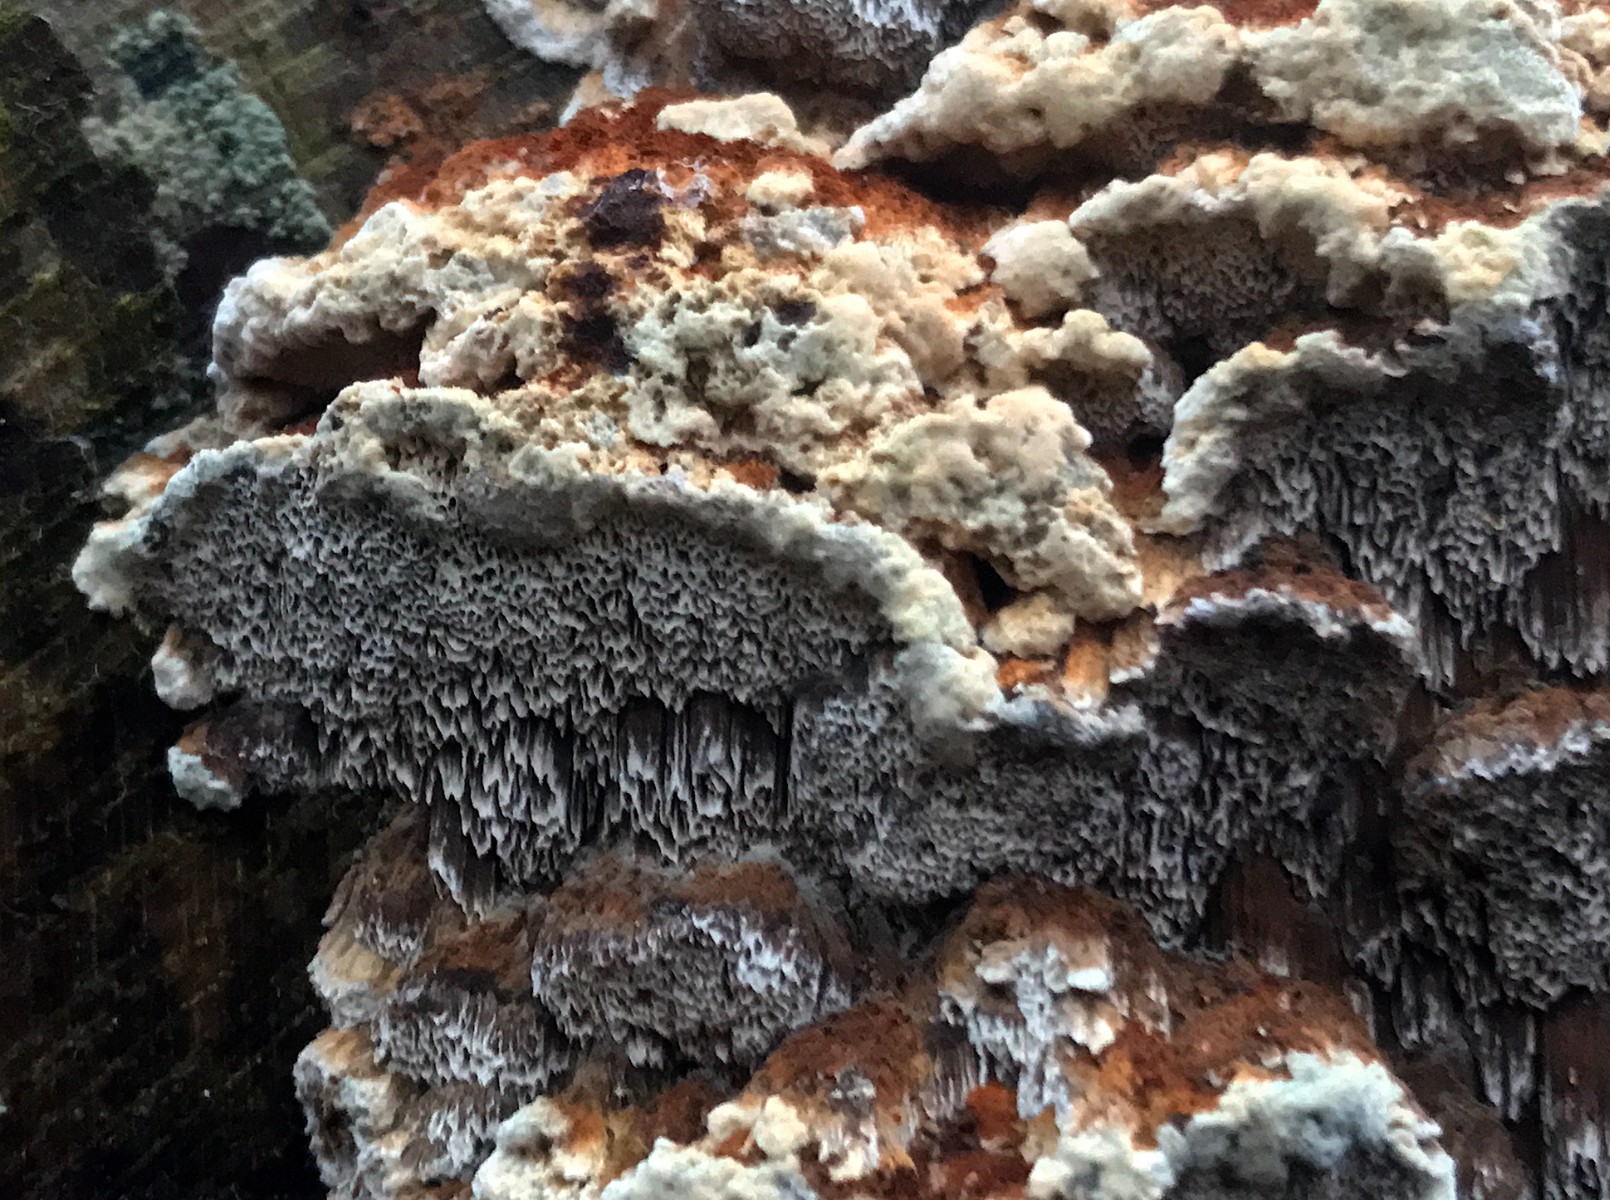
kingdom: Fungi
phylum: Basidiomycota
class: Agaricomycetes
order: Hymenochaetales
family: Hymenochaetaceae
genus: Mensularia
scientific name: Mensularia nodulosa
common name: bøge-spejlporesvamp
